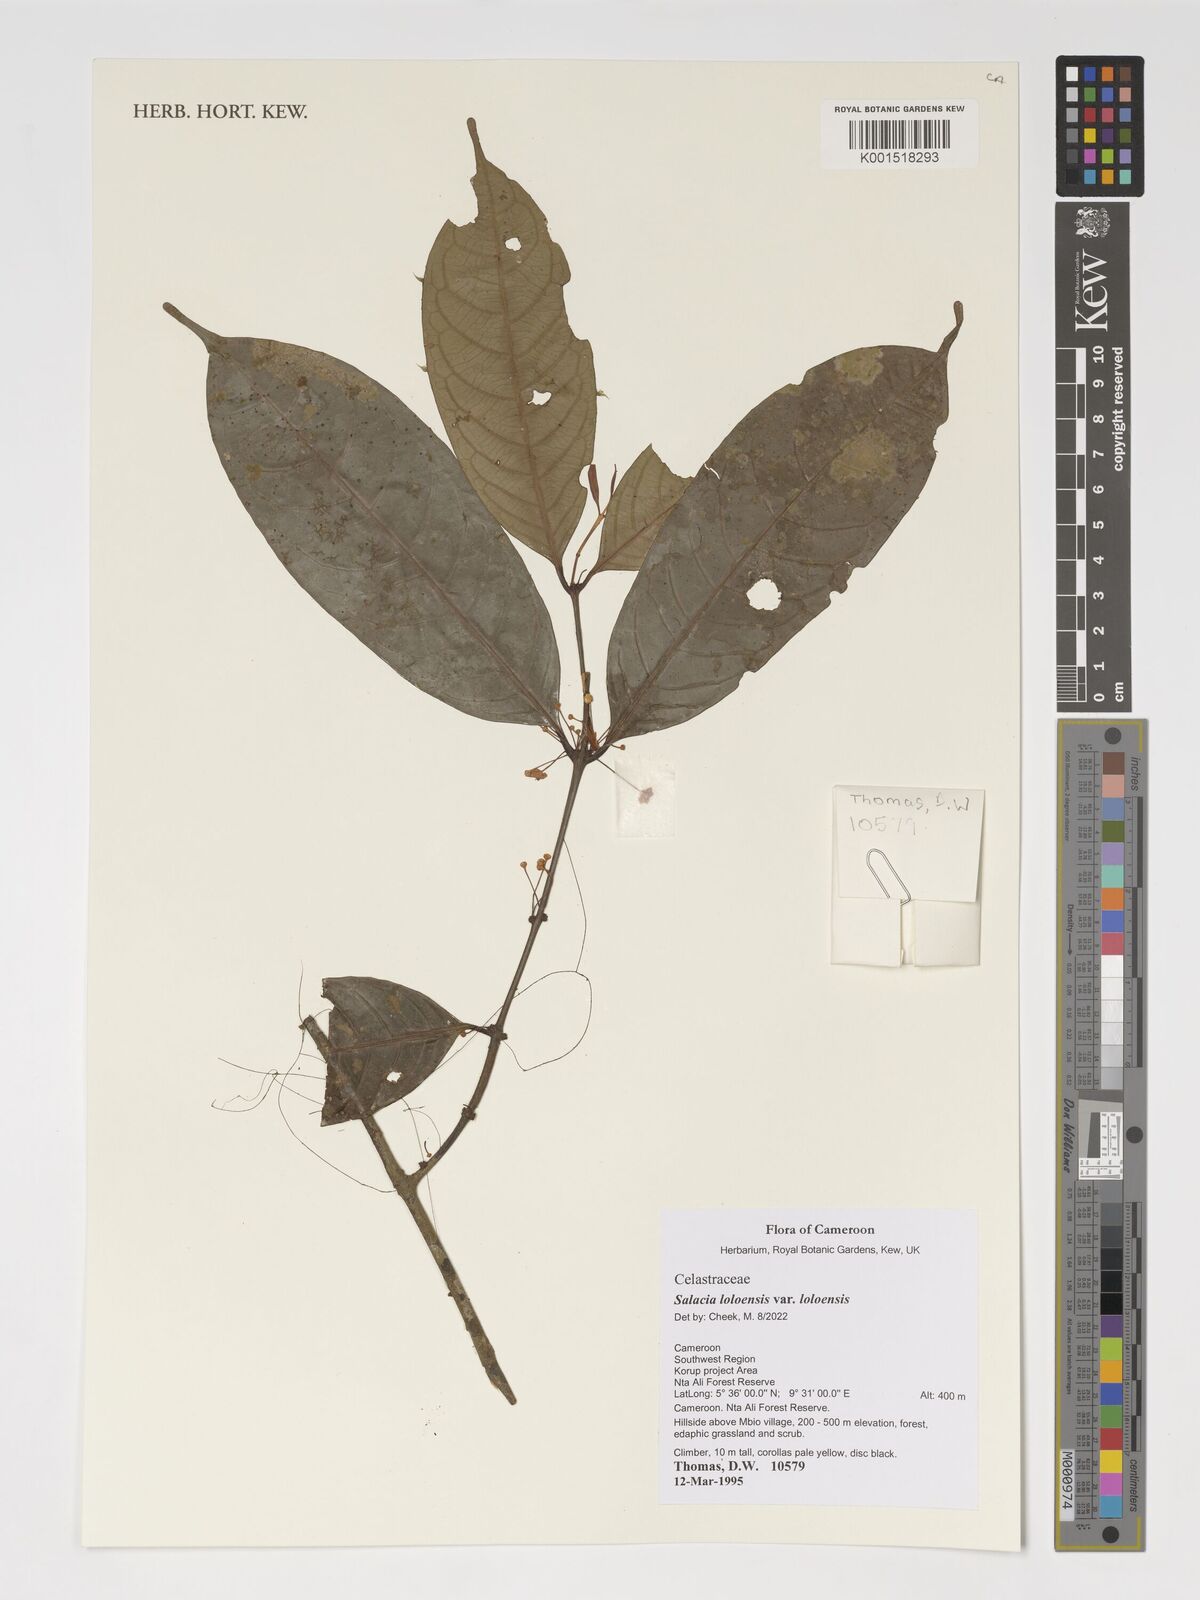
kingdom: Plantae
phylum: Tracheophyta
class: Magnoliopsida
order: Celastrales
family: Celastraceae
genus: Salacia
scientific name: Salacia loloensis
